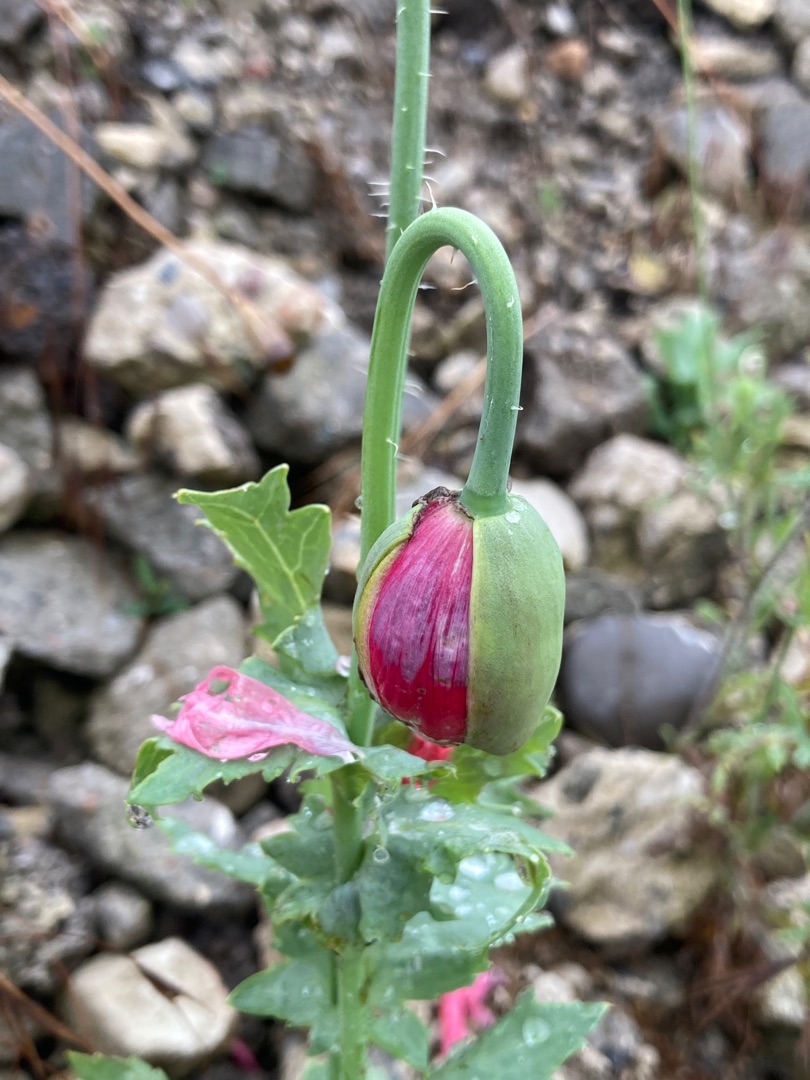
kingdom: Plantae
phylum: Tracheophyta
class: Magnoliopsida
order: Ranunculales
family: Papaveraceae
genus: Papaver
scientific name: Papaver somniferum
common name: Opium-valmue
